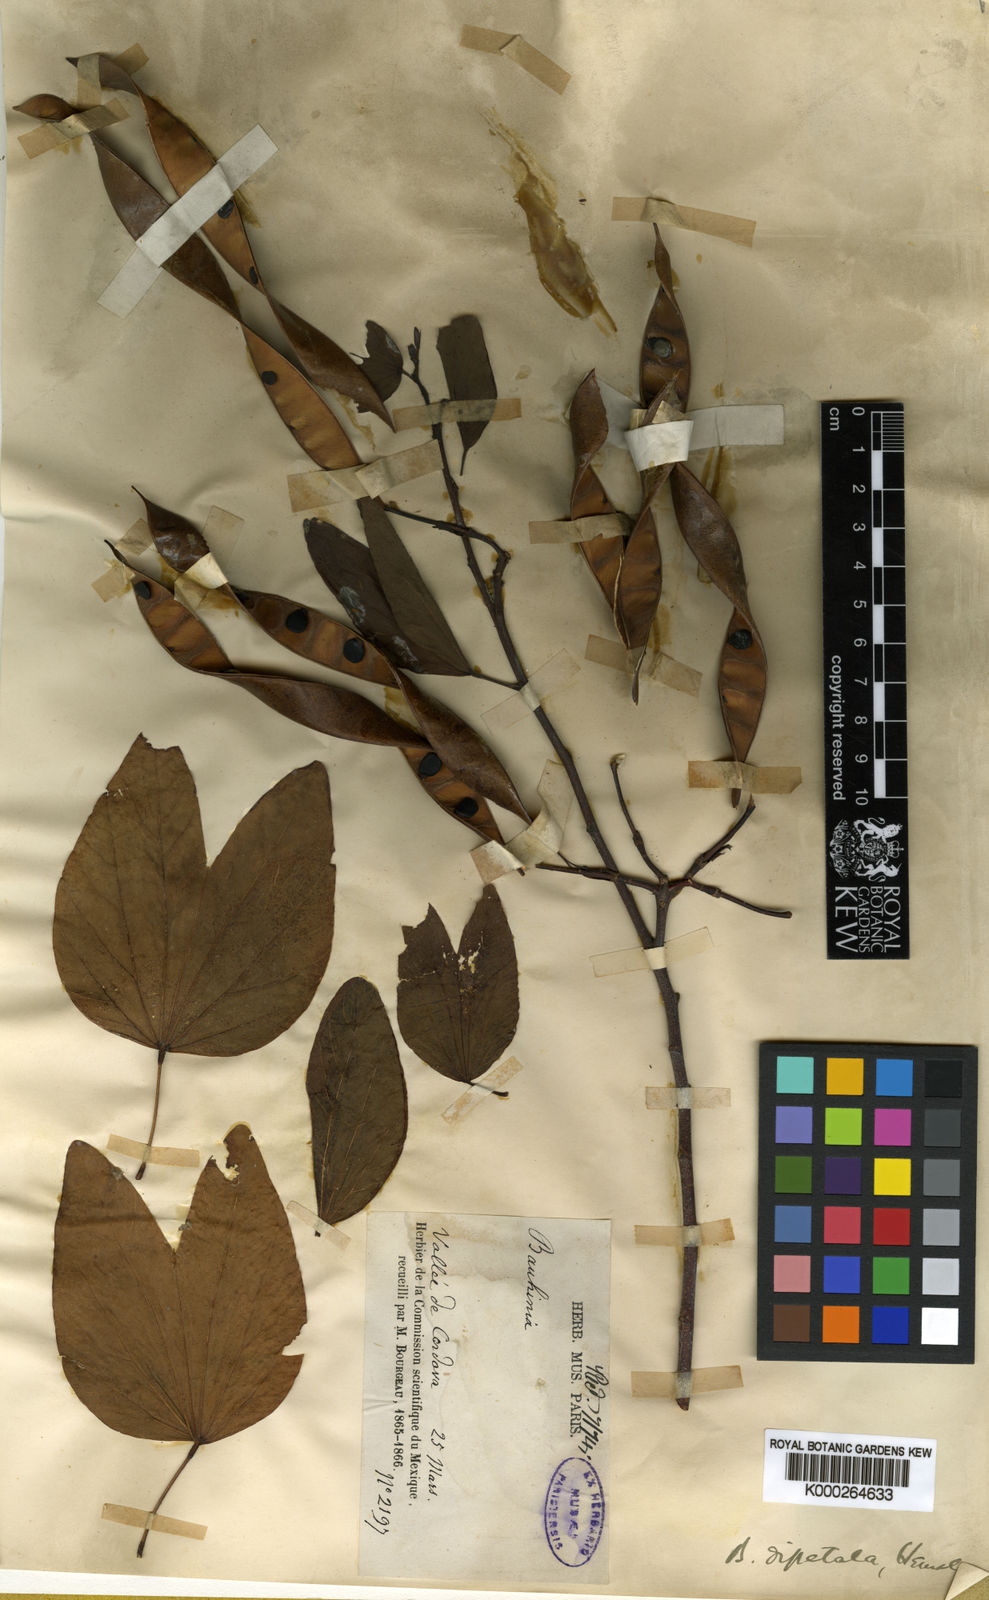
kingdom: Plantae
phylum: Tracheophyta
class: Magnoliopsida
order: Fabales
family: Fabaceae
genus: Bauhinia
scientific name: Bauhinia dipetala
